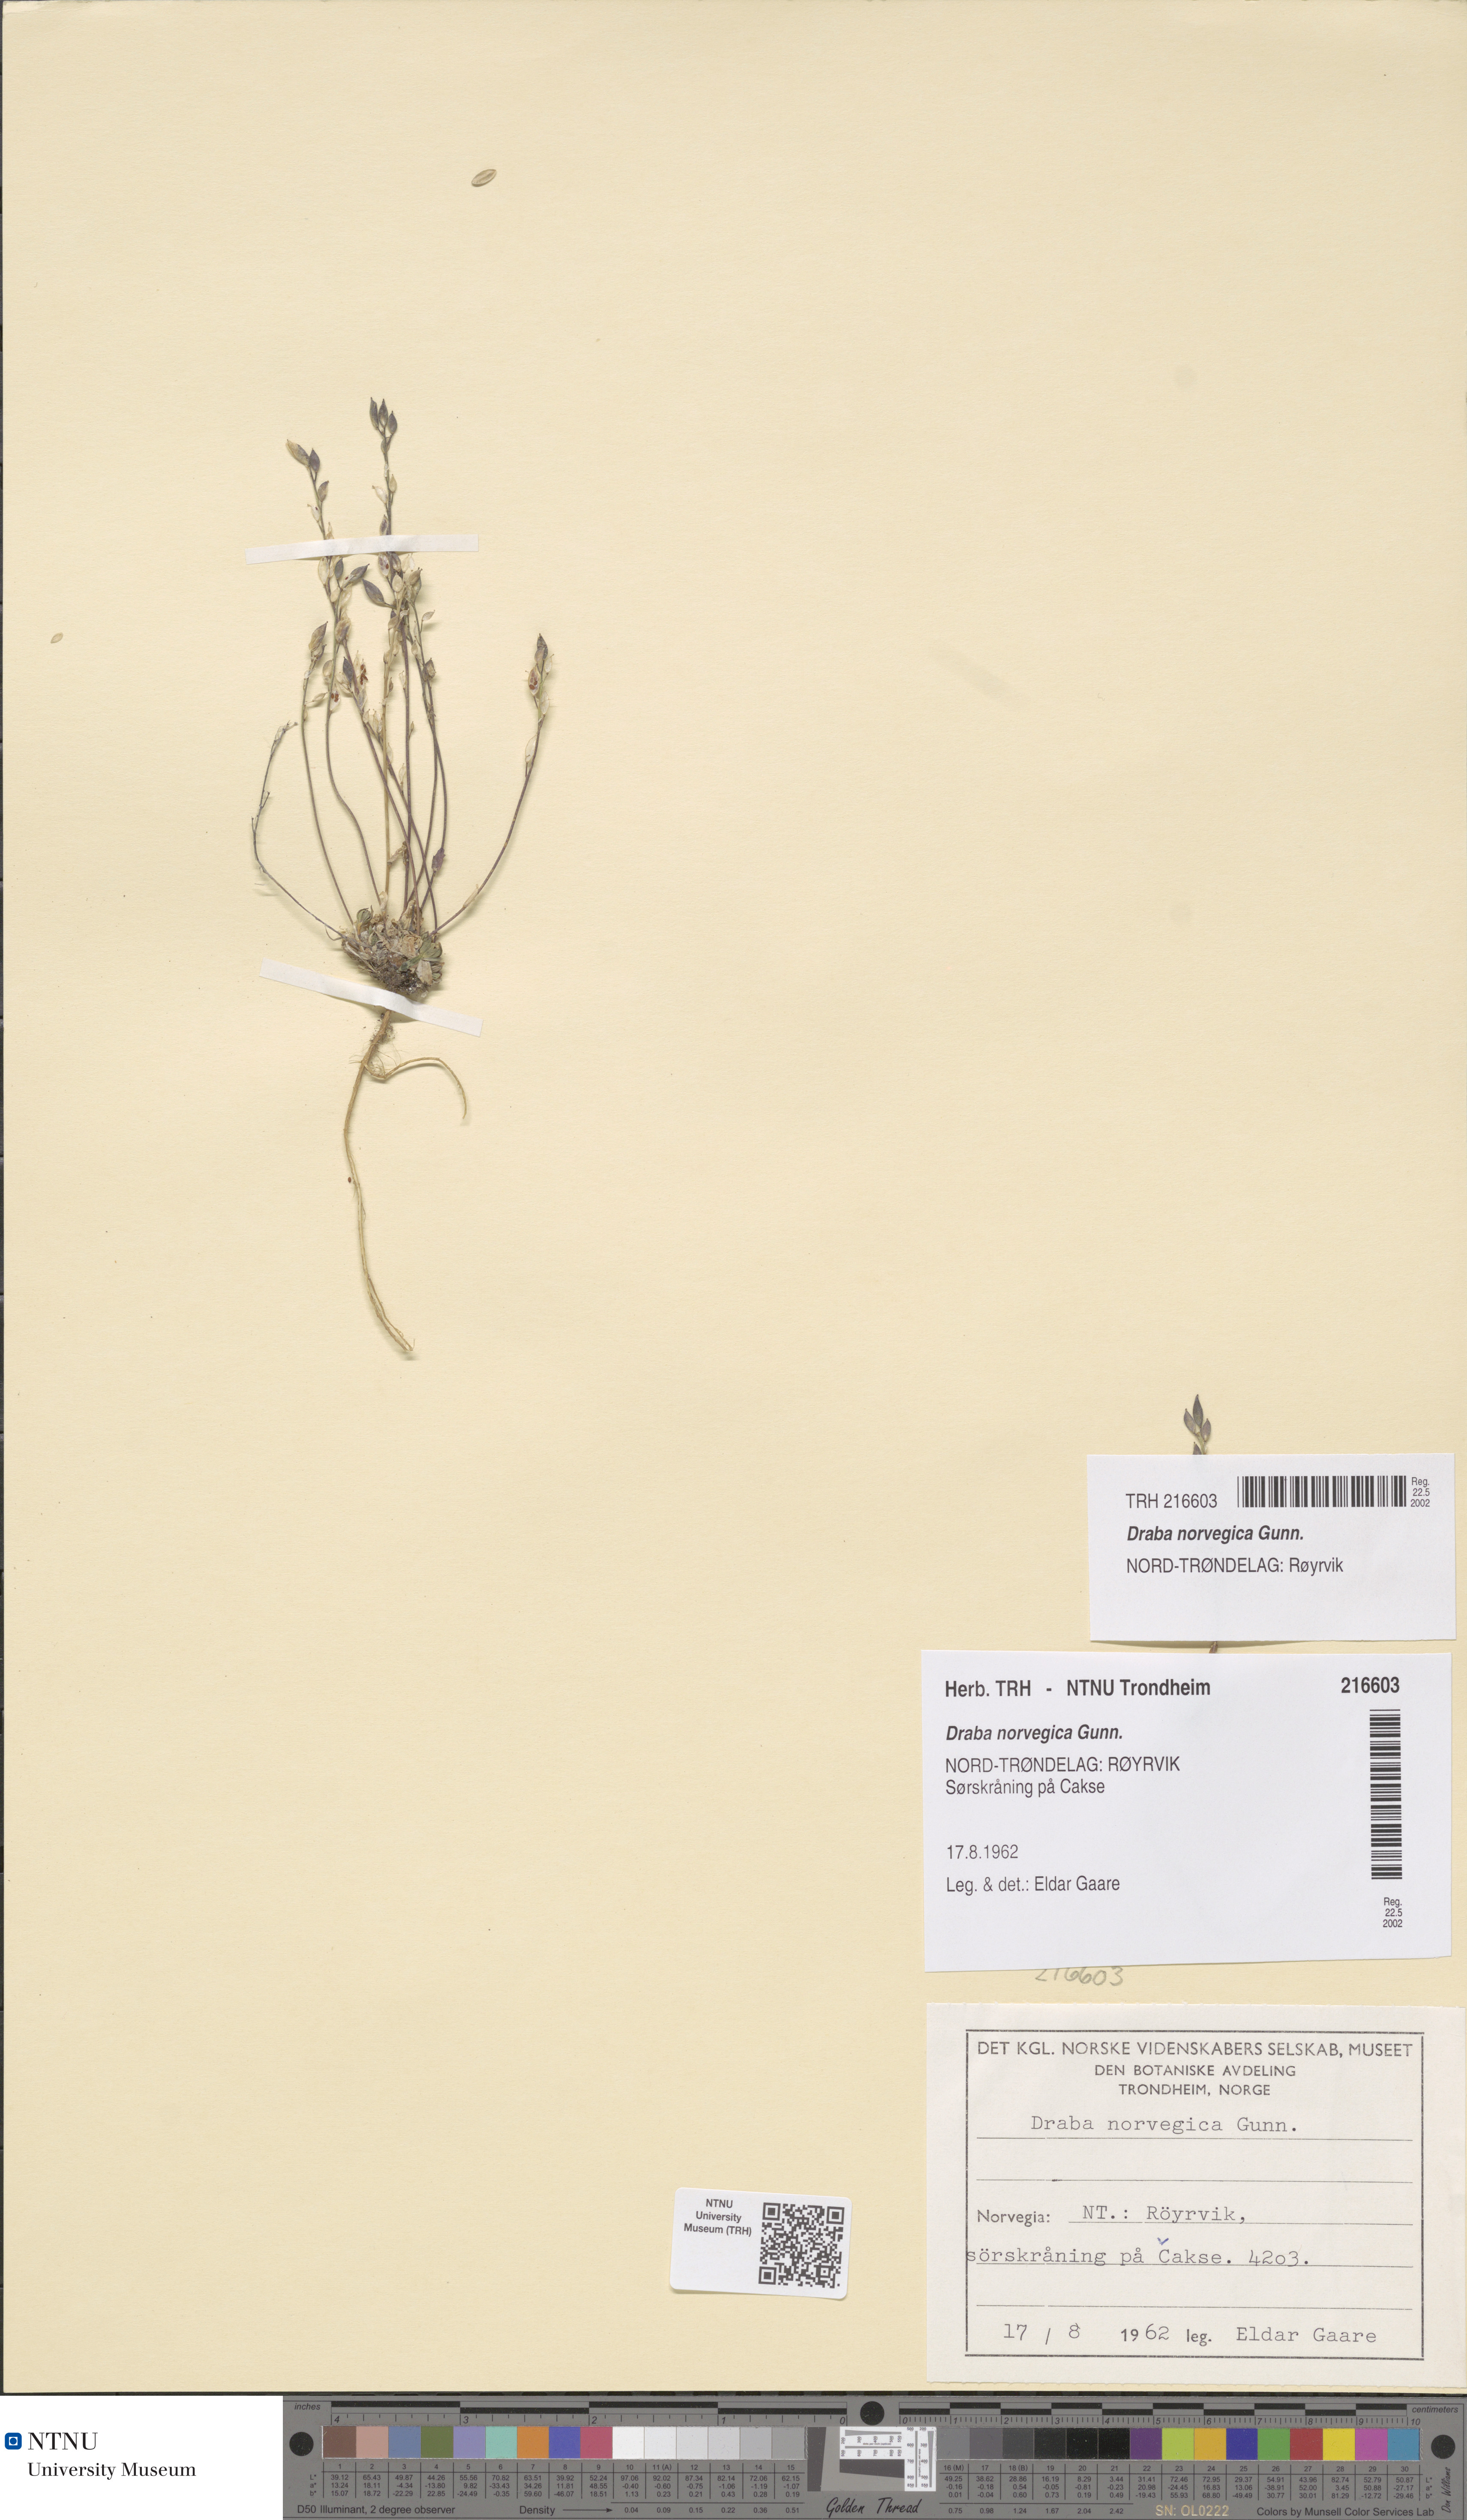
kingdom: Plantae
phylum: Tracheophyta
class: Magnoliopsida
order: Brassicales
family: Brassicaceae
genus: Draba
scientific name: Draba norvegica
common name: Rock whitlowgrass
